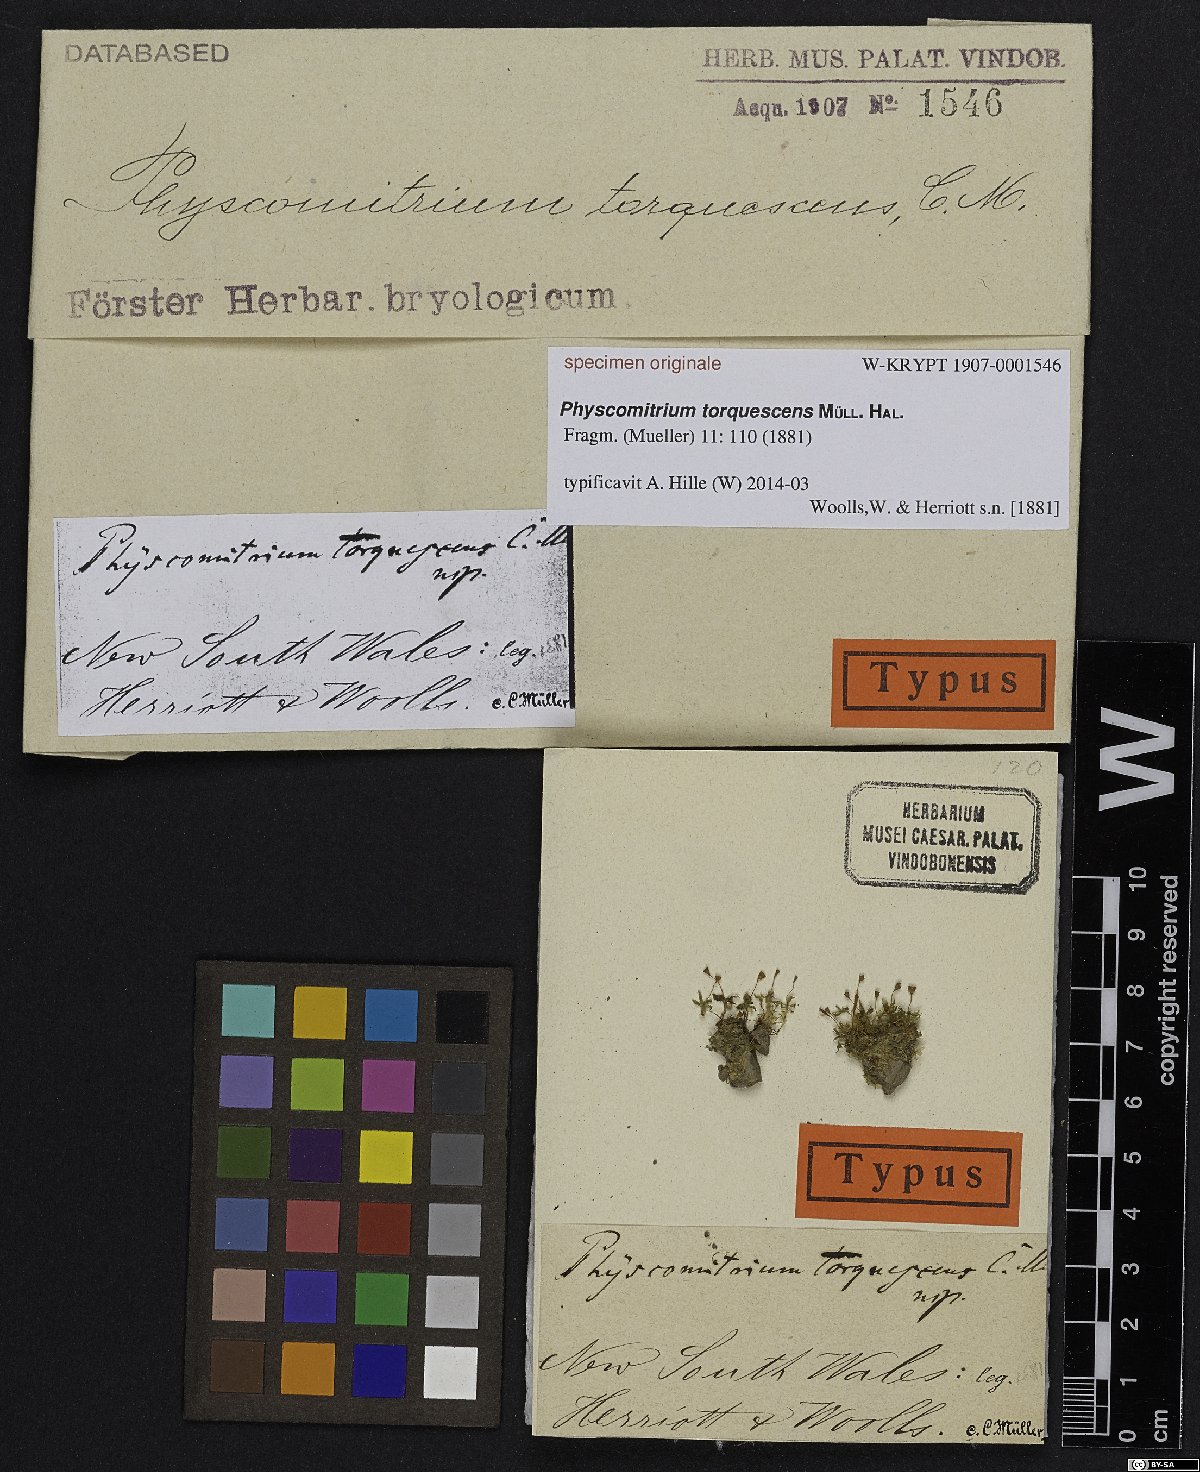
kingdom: Plantae
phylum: Bryophyta
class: Bryopsida
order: Funariales
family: Funariaceae
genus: Physcomitrium
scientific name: Physcomitrium
